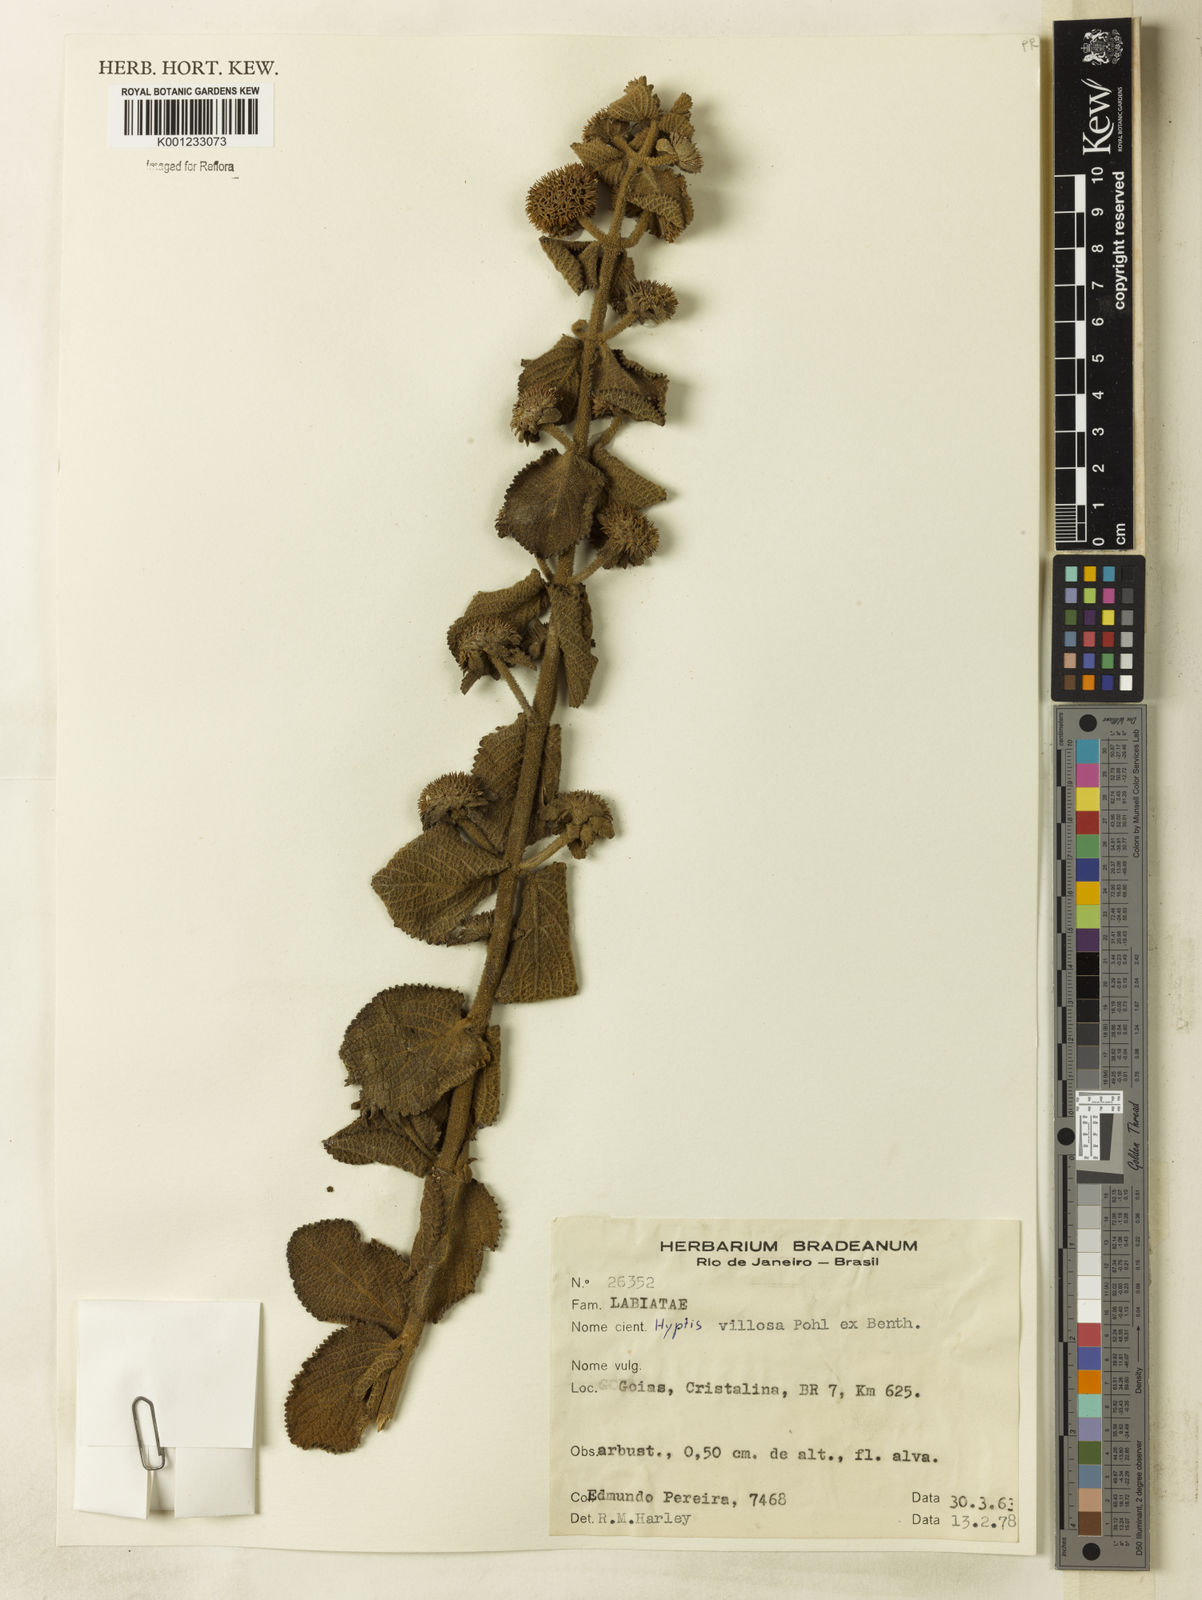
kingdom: Plantae
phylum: Tracheophyta
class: Magnoliopsida
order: Lamiales
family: Lamiaceae
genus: Hyptis
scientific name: Hyptis villosa
